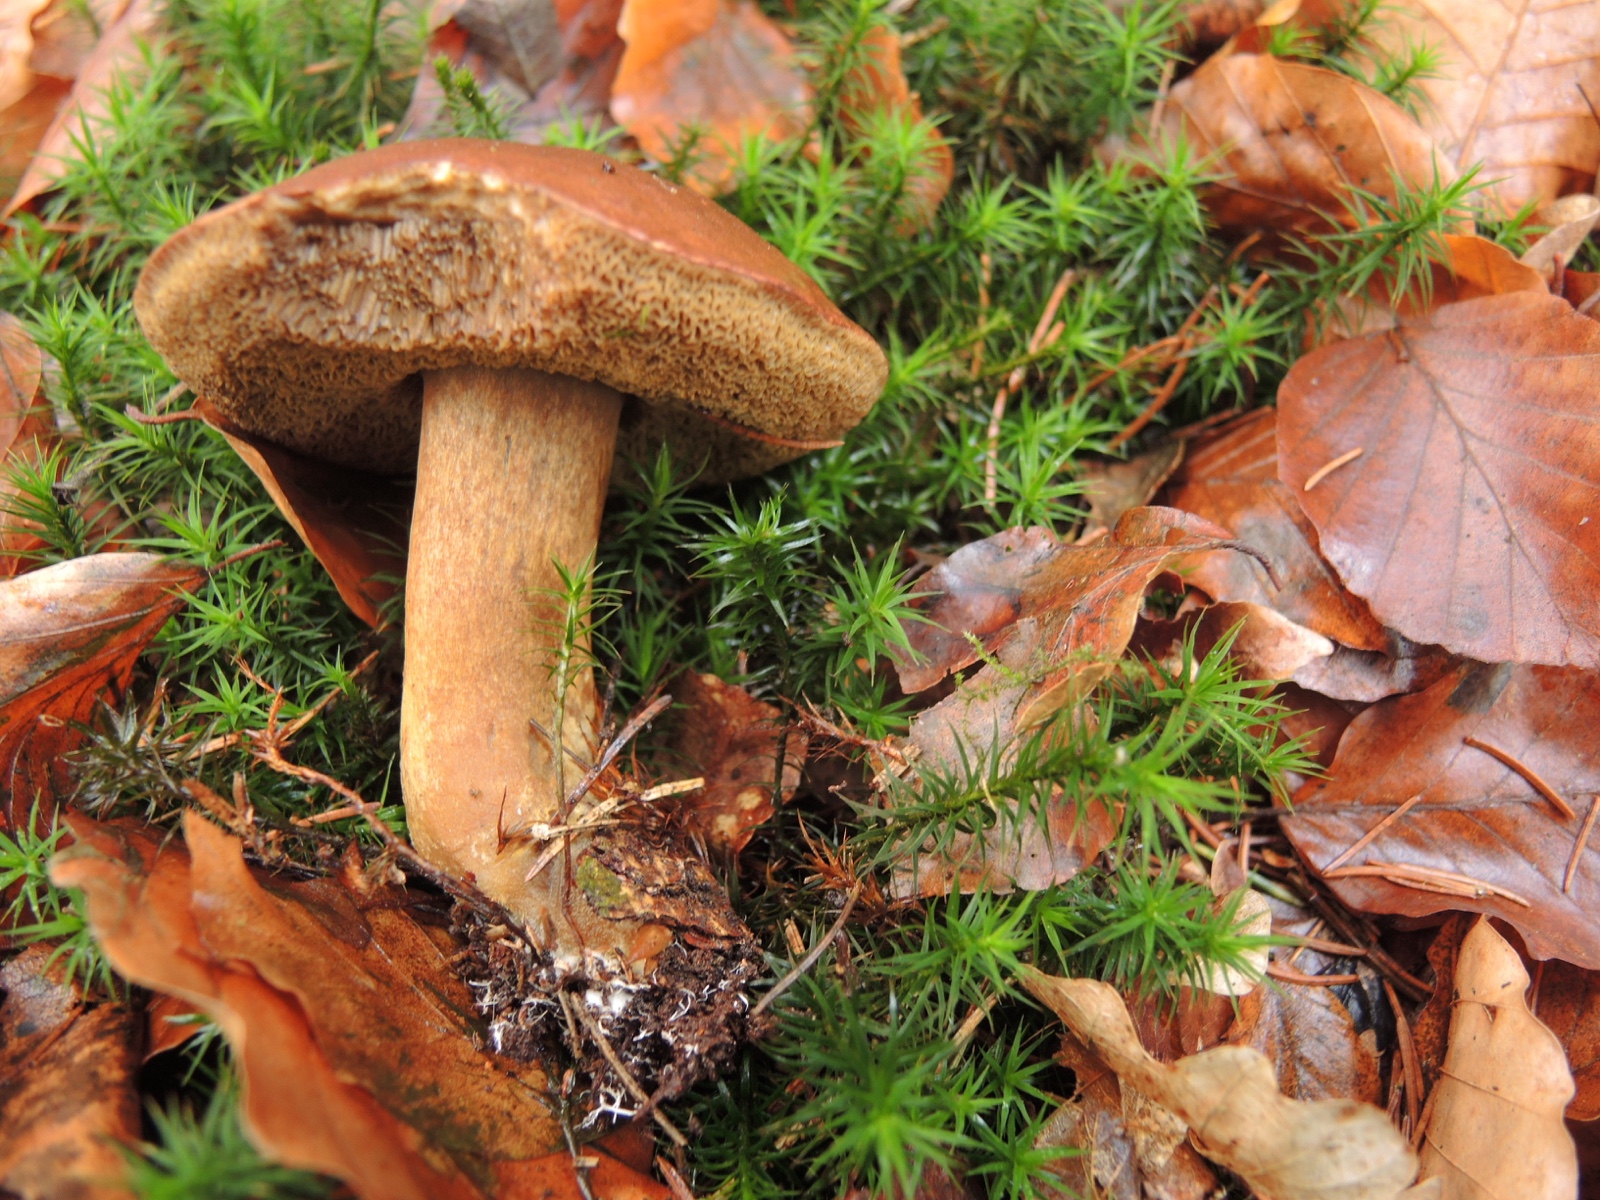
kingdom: Fungi
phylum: Basidiomycota
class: Agaricomycetes
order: Boletales
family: Boletaceae
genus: Imleria
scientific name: Imleria badia
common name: brunstokket rørhat
